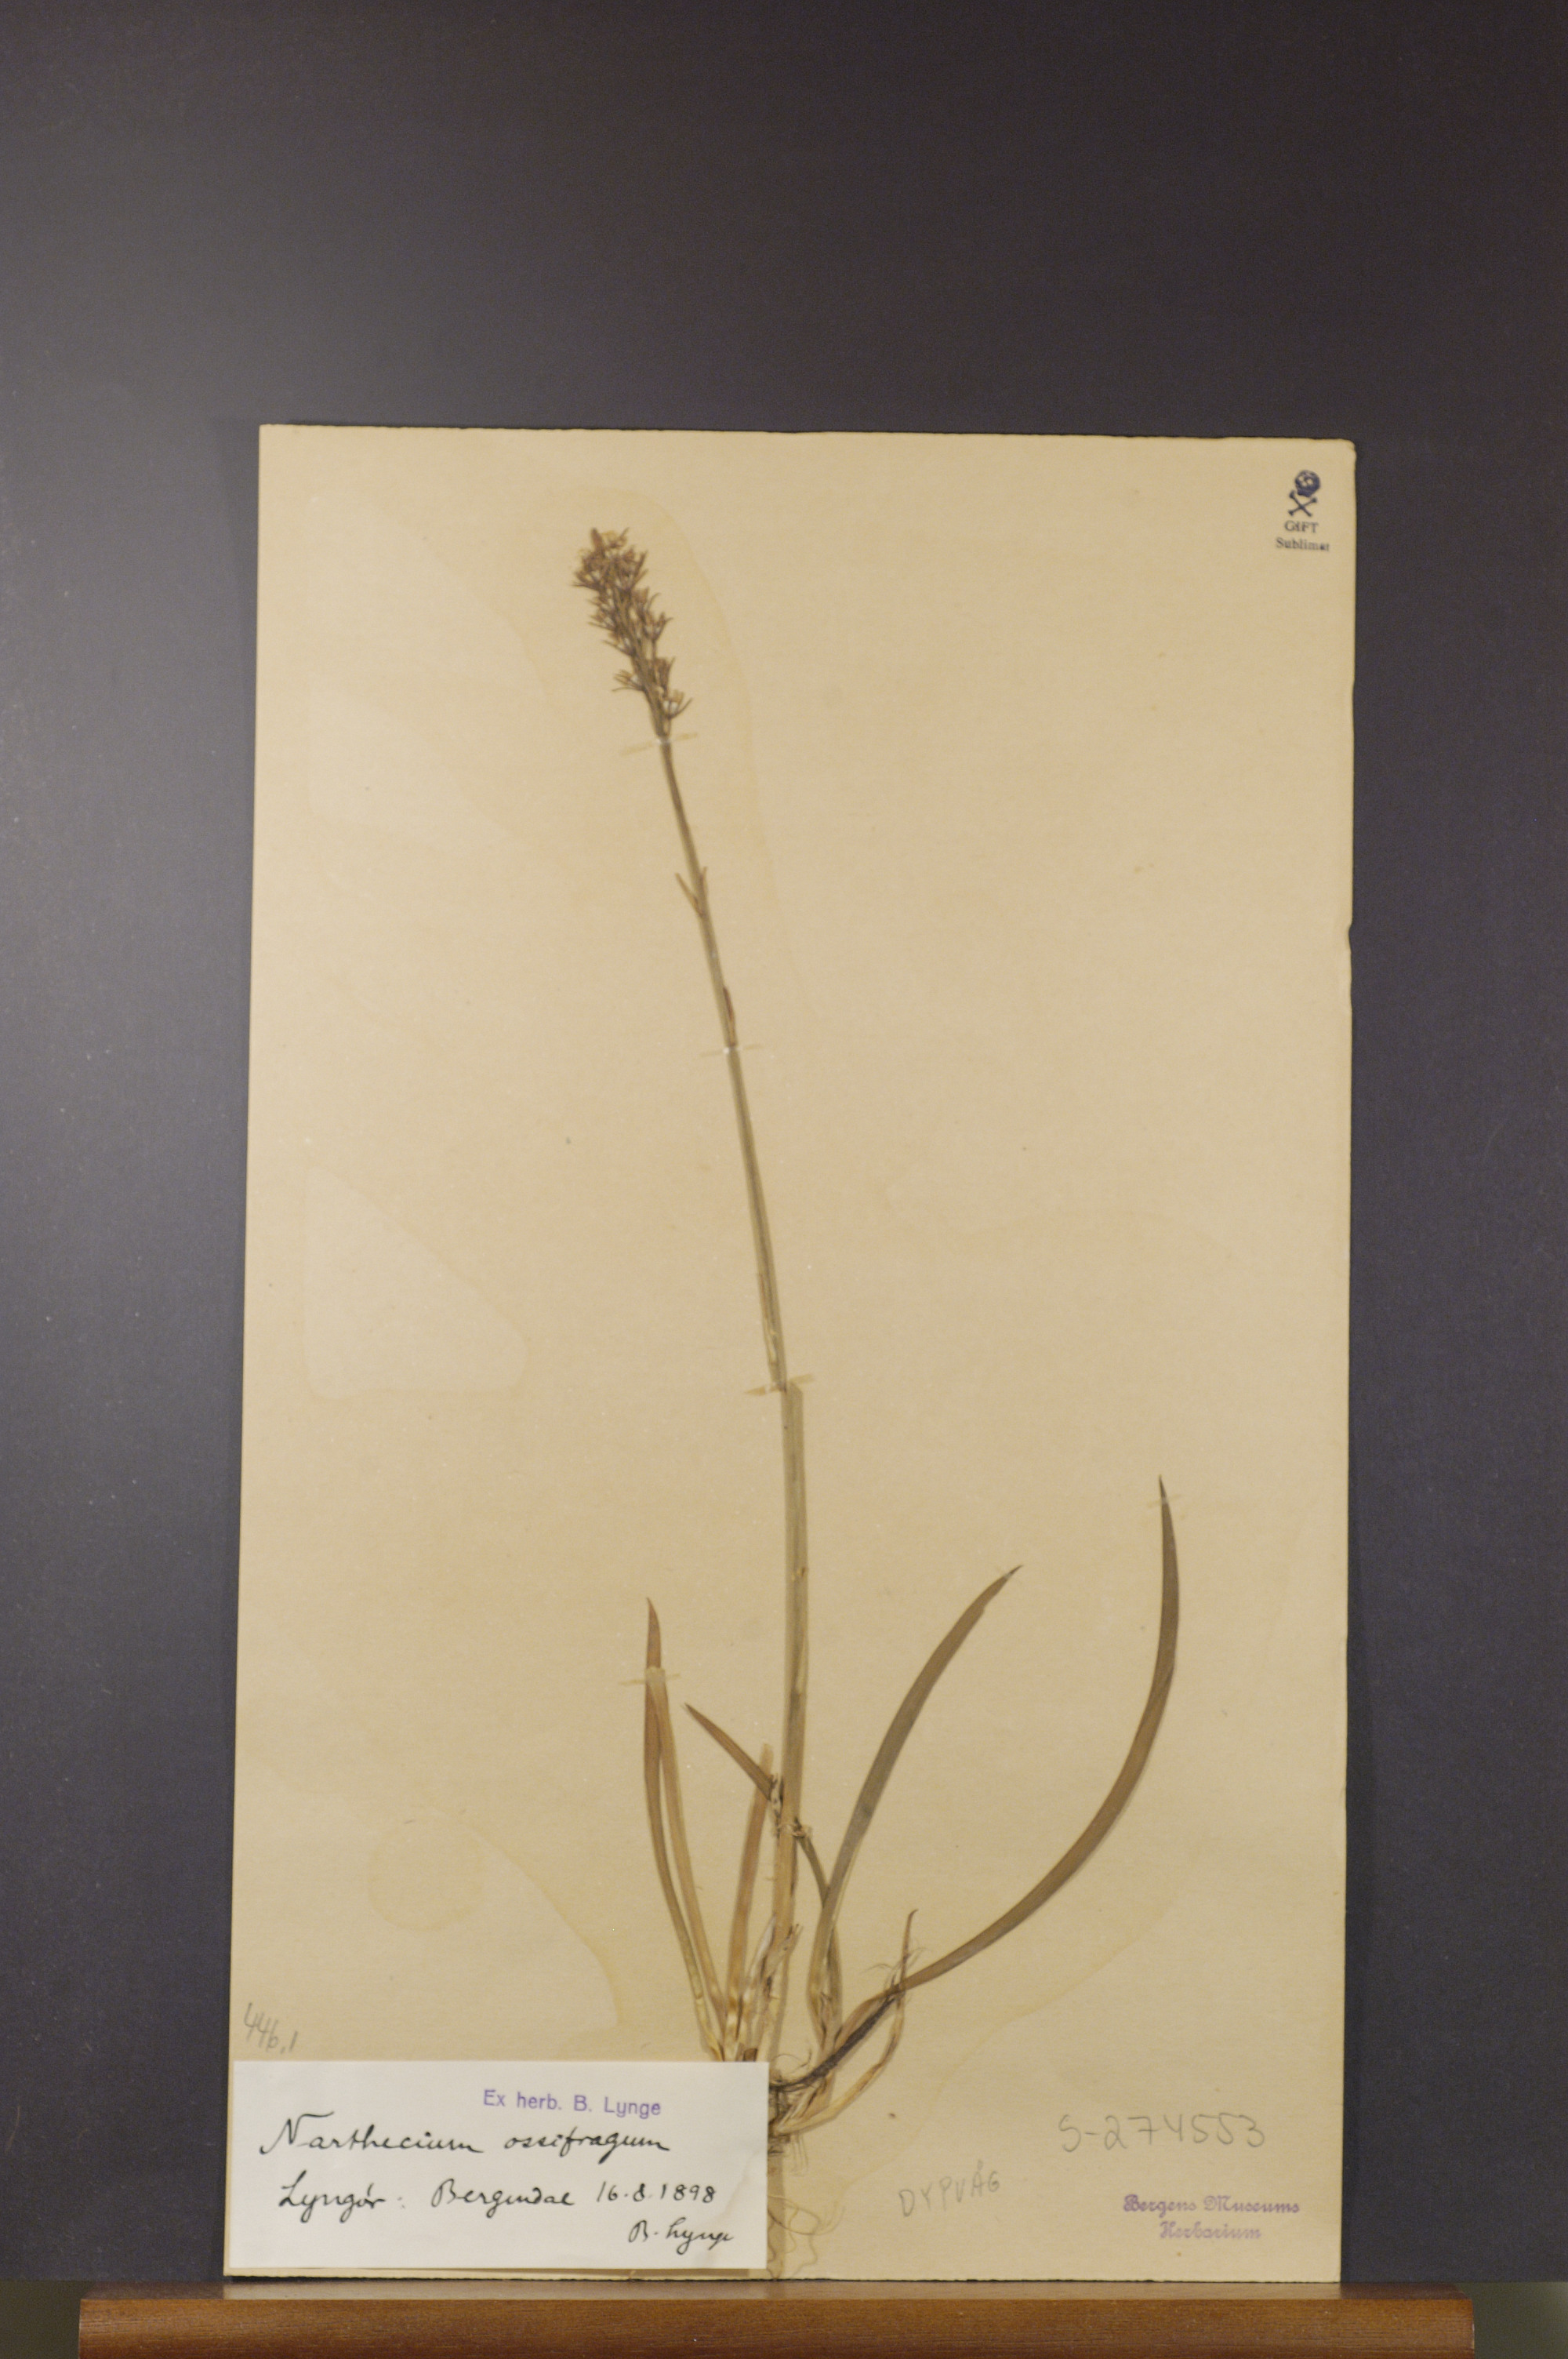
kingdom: Plantae
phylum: Tracheophyta
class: Liliopsida
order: Dioscoreales
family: Nartheciaceae
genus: Narthecium
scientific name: Narthecium ossifragum
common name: Bog asphodel
